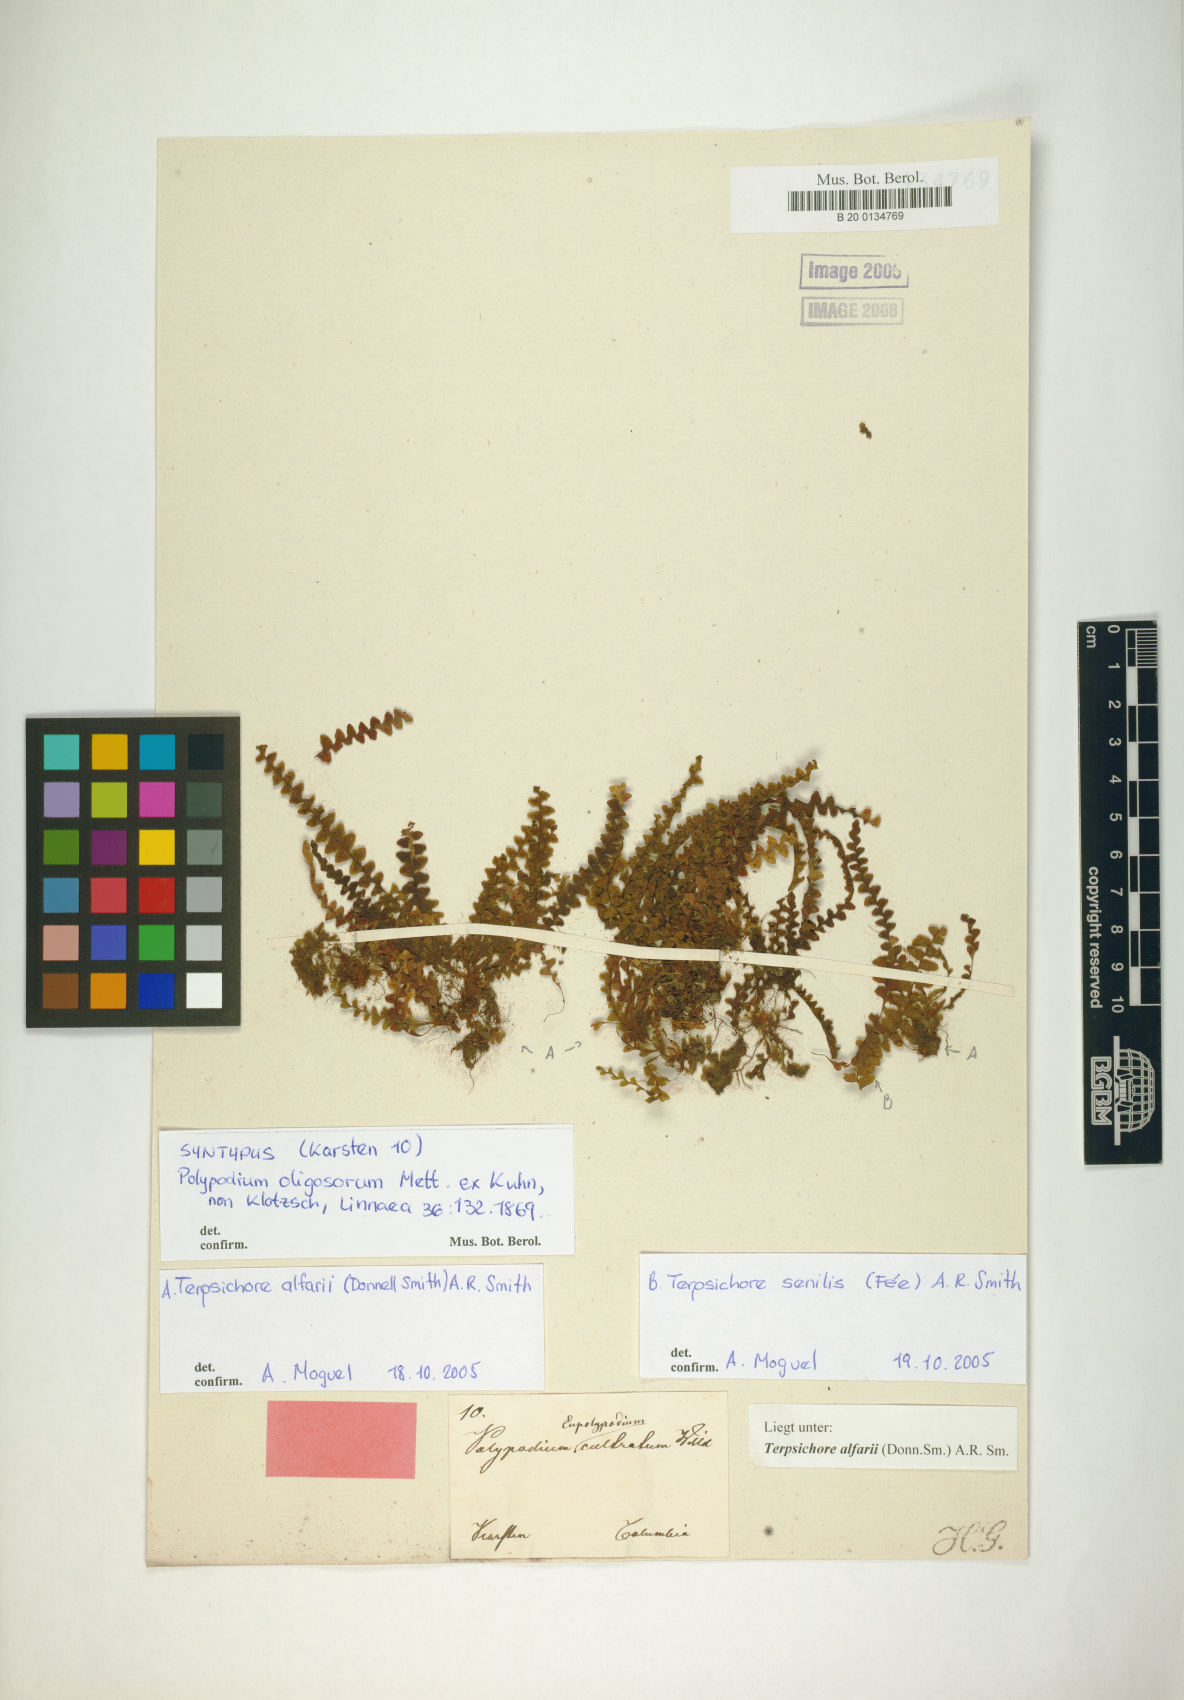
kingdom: Plantae
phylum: Tracheophyta
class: Polypodiopsida
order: Polypodiales
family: Polypodiaceae
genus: Terpsichore
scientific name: Terpsichore alfaroi
